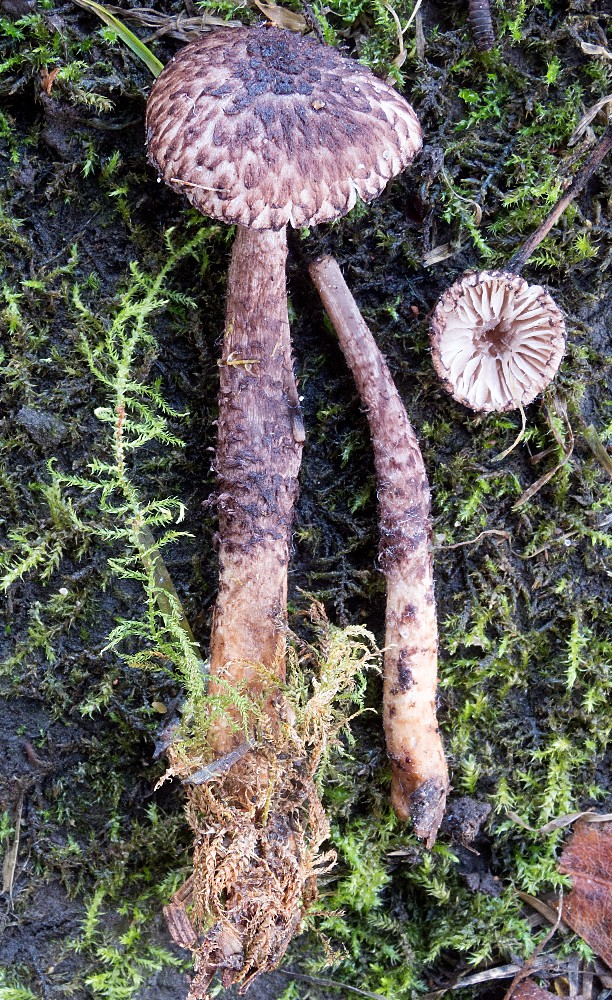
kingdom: Fungi
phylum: Basidiomycota
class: Agaricomycetes
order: Agaricales
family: Tricholomataceae
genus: Squamanita
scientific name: Squamanita pearsonii
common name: Pearsons knoldfod
